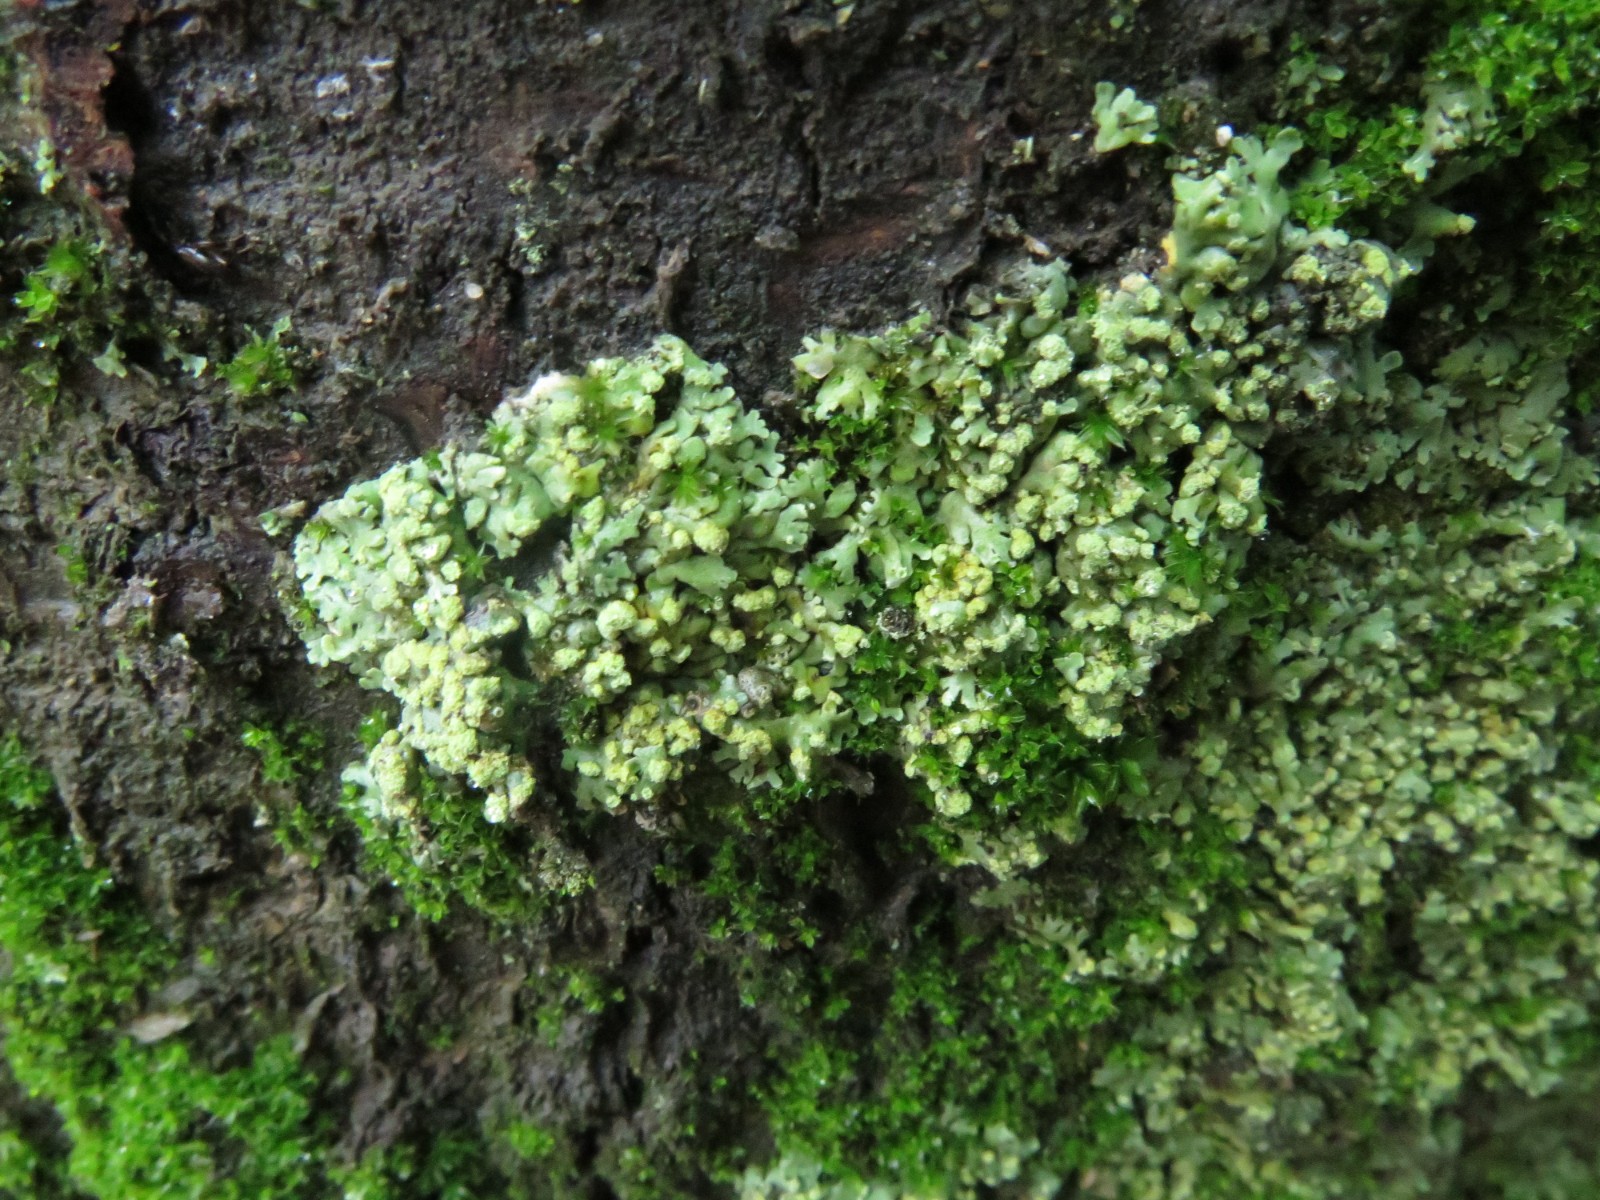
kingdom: Fungi
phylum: Ascomycota
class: Lecanoromycetes
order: Caliciales
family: Physciaceae
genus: Physcia
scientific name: Physcia adscendens
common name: hætte-rosetlav
